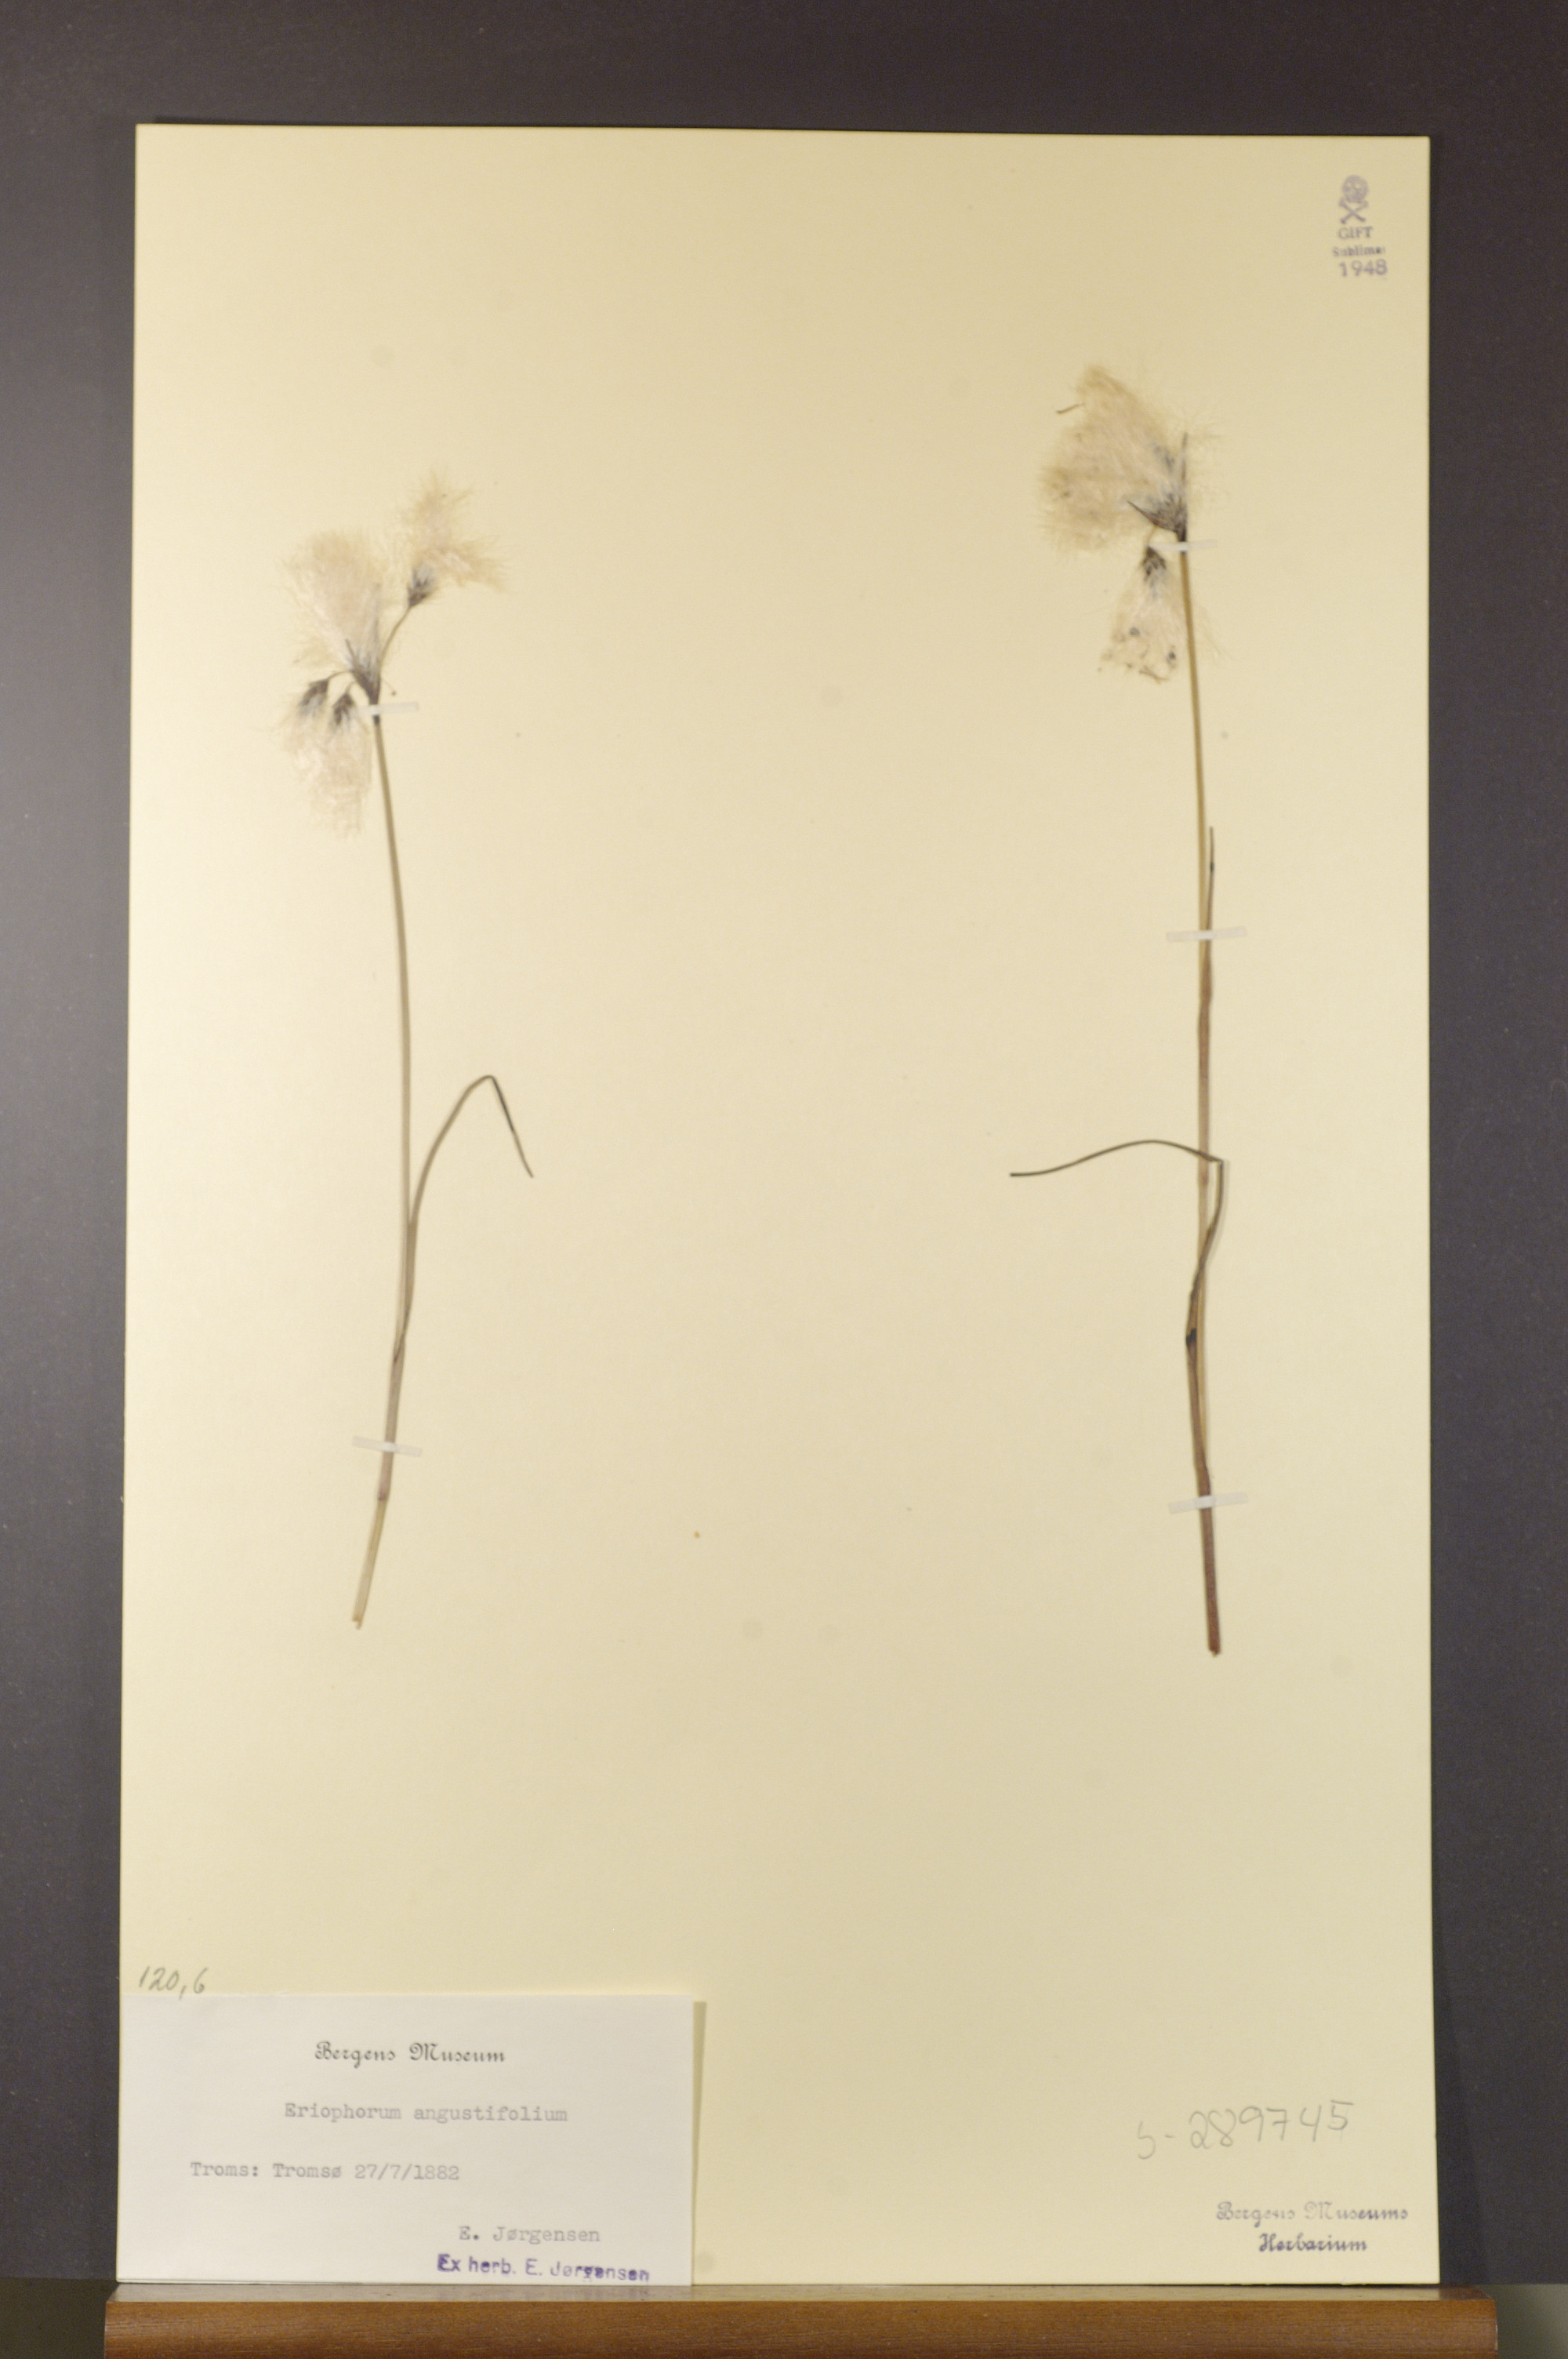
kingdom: Plantae
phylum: Tracheophyta
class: Liliopsida
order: Poales
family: Cyperaceae
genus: Eriophorum
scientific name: Eriophorum angustifolium
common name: Common cottongrass
